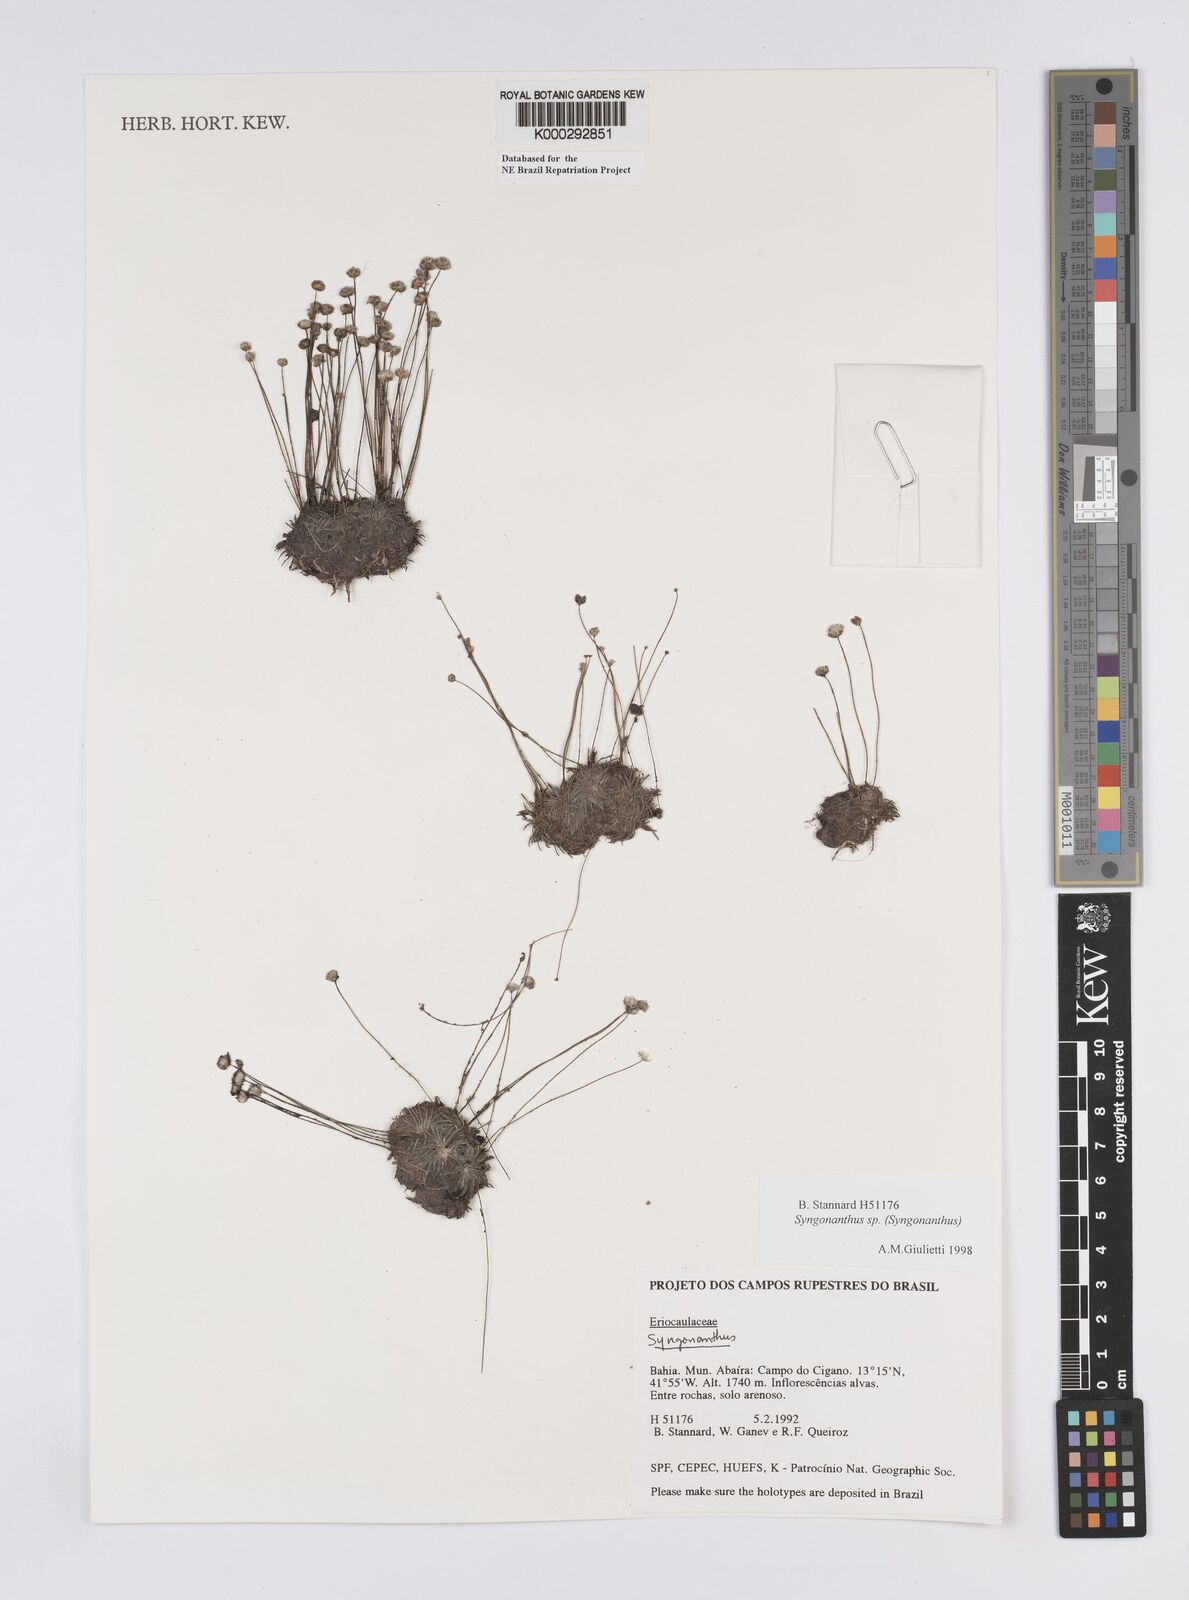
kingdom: Plantae
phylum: Tracheophyta
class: Liliopsida
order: Poales
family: Eriocaulaceae
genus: Syngonanthus
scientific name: Syngonanthus
